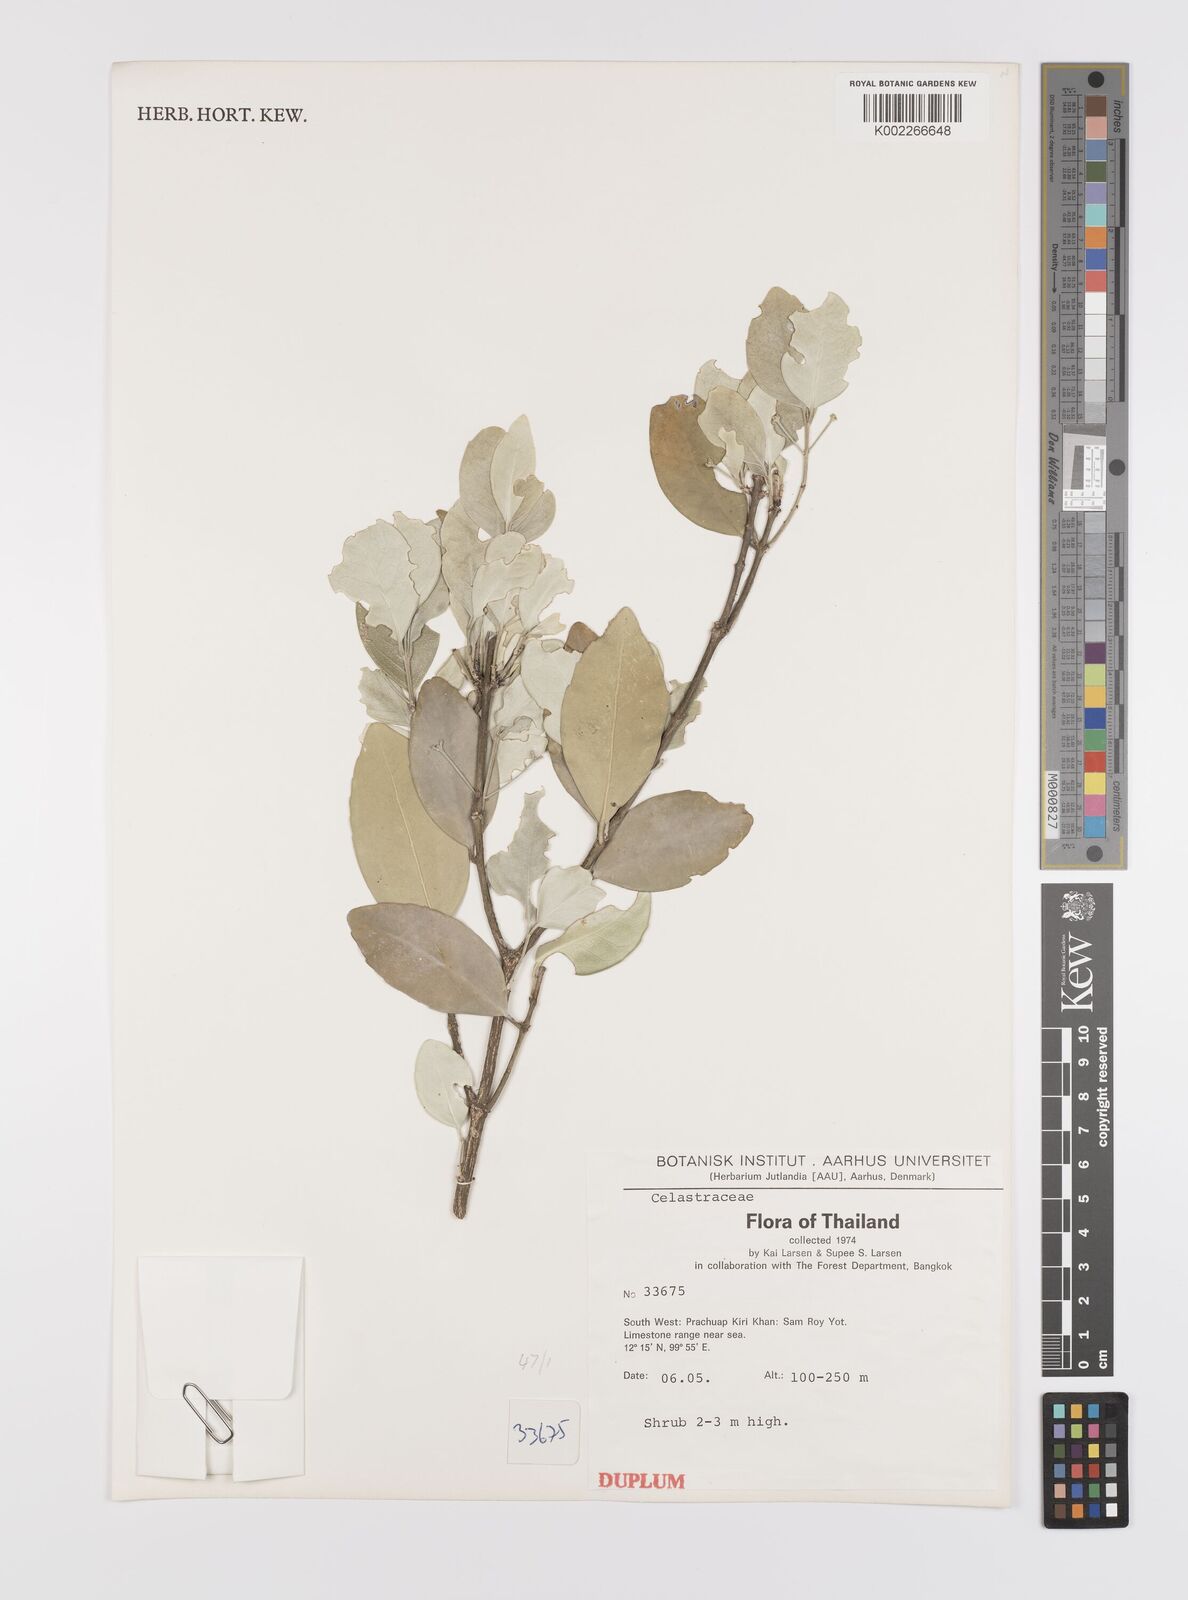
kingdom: Plantae
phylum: Tracheophyta
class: Magnoliopsida
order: Celastrales
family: Celastraceae
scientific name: Celastraceae
